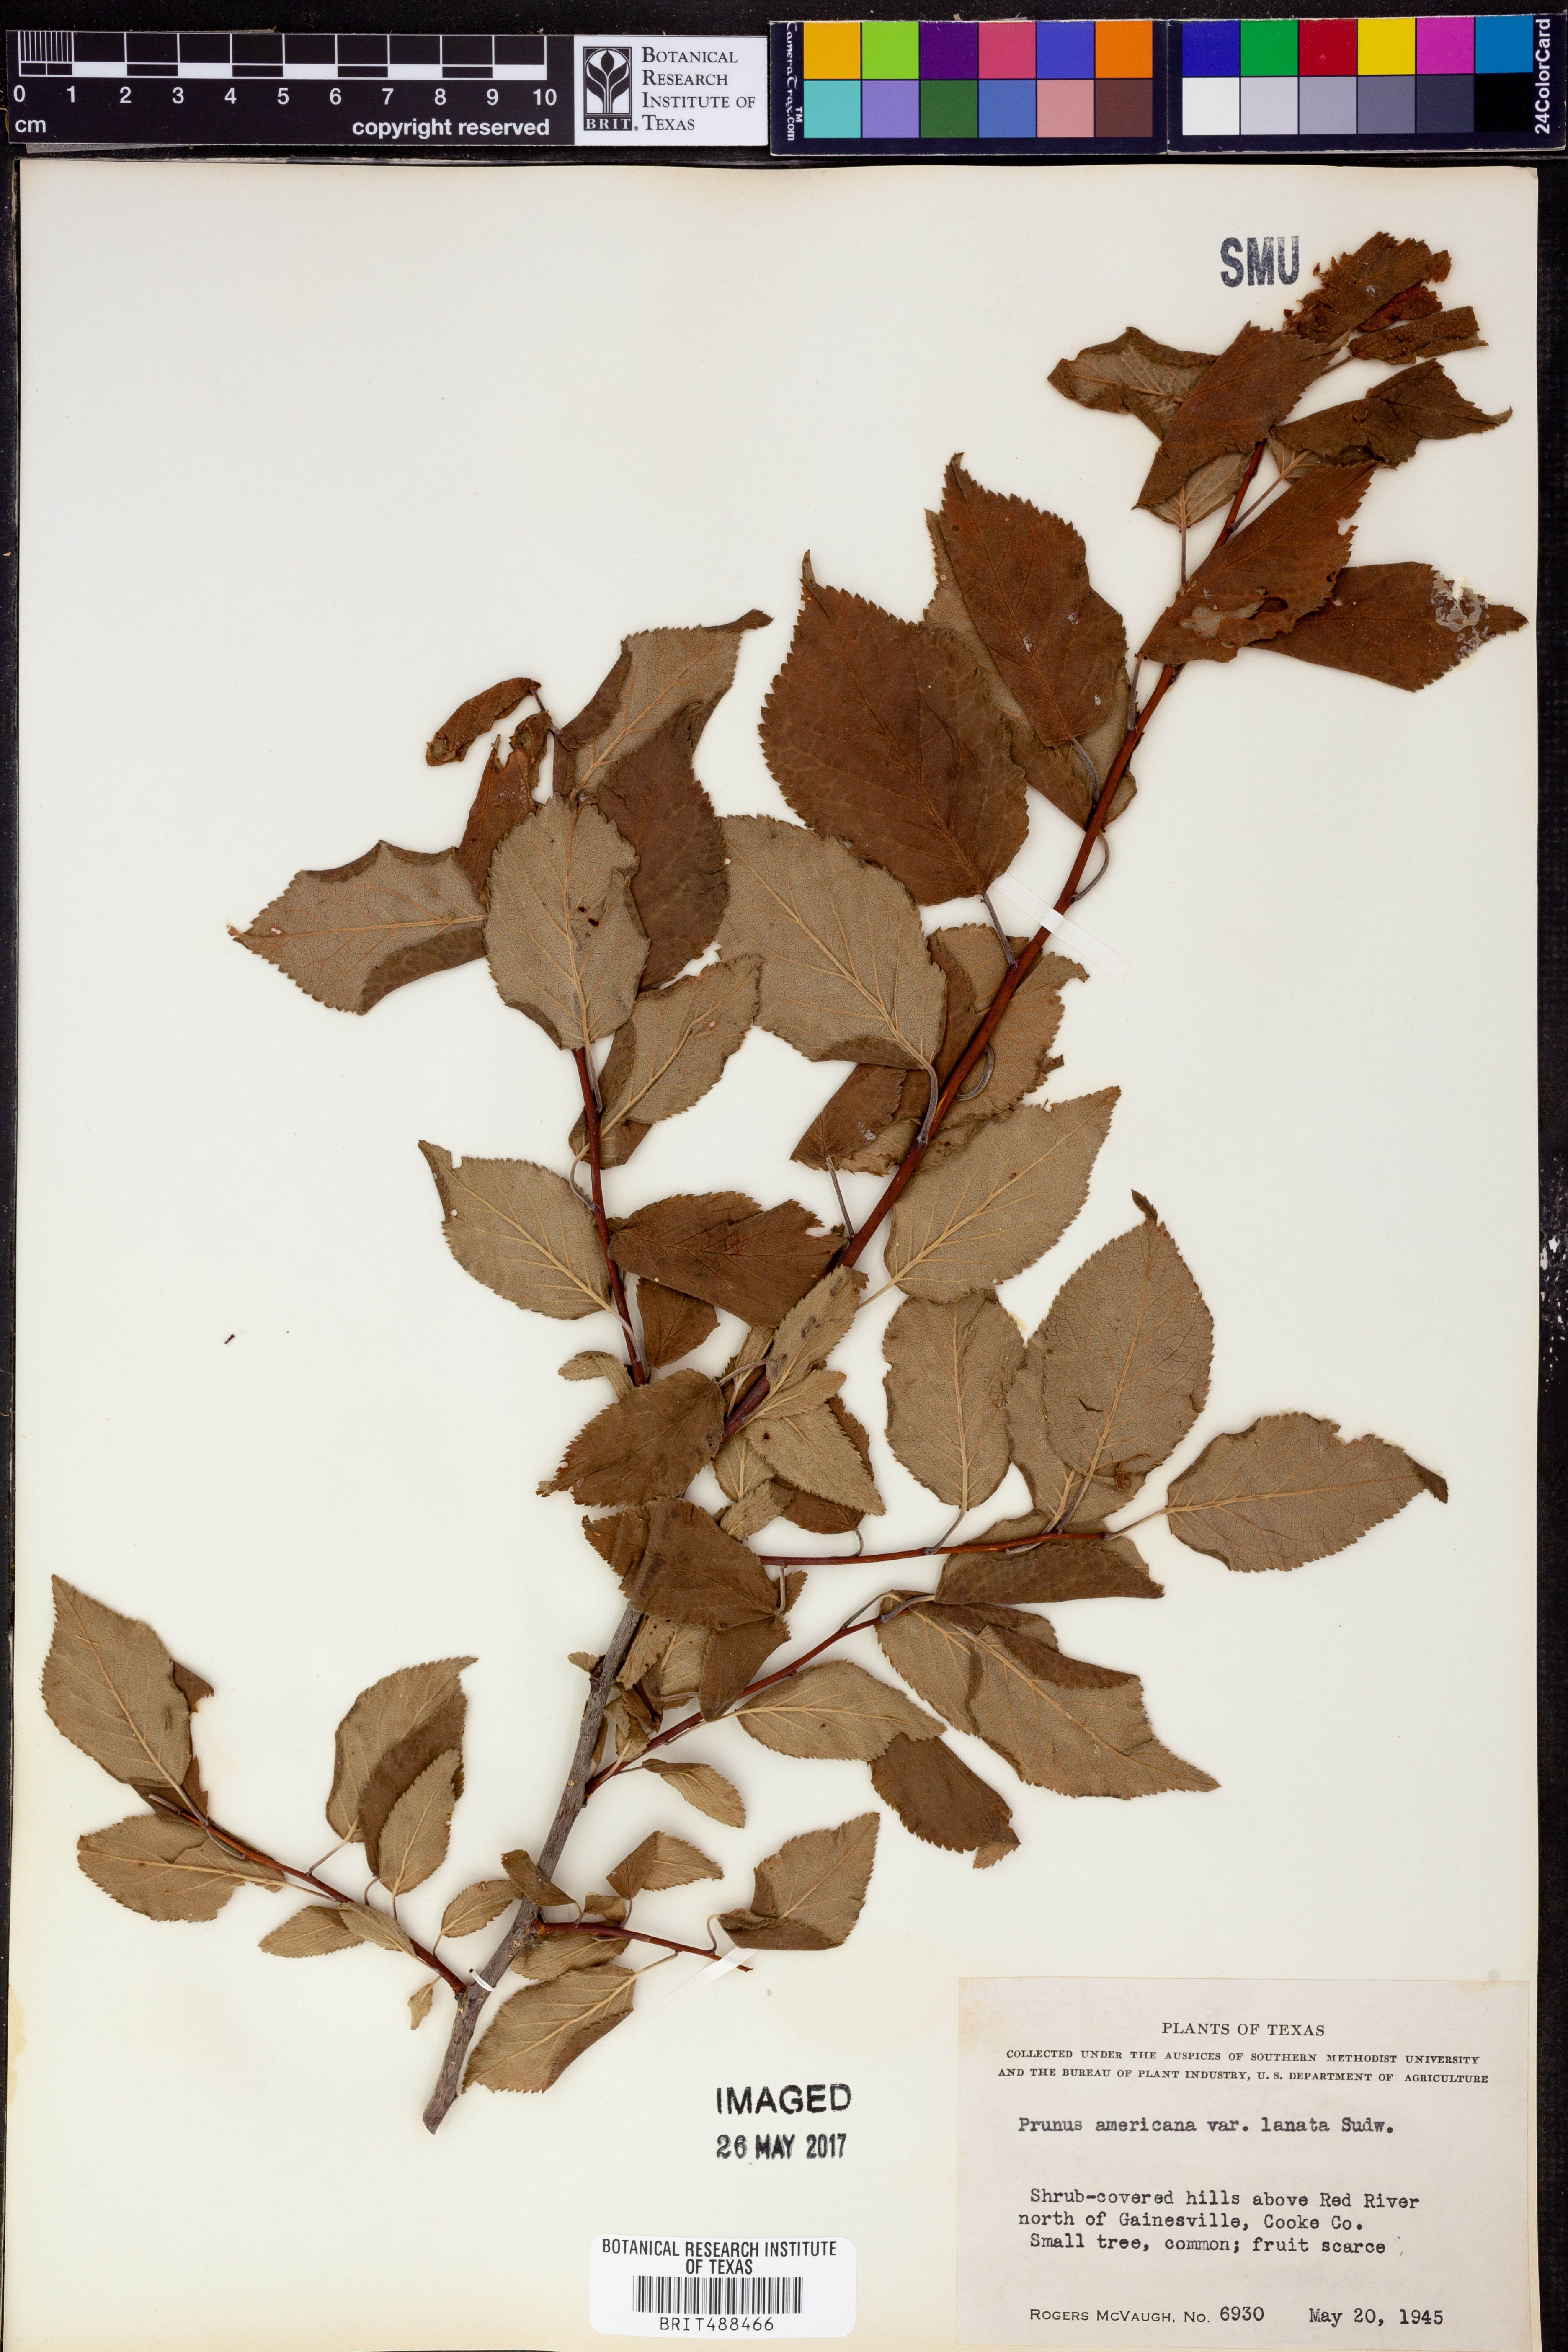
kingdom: Plantae
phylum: Tracheophyta
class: Magnoliopsida
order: Rosales
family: Rosaceae
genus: Prunus
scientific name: Prunus mexicana
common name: Mexican plum
